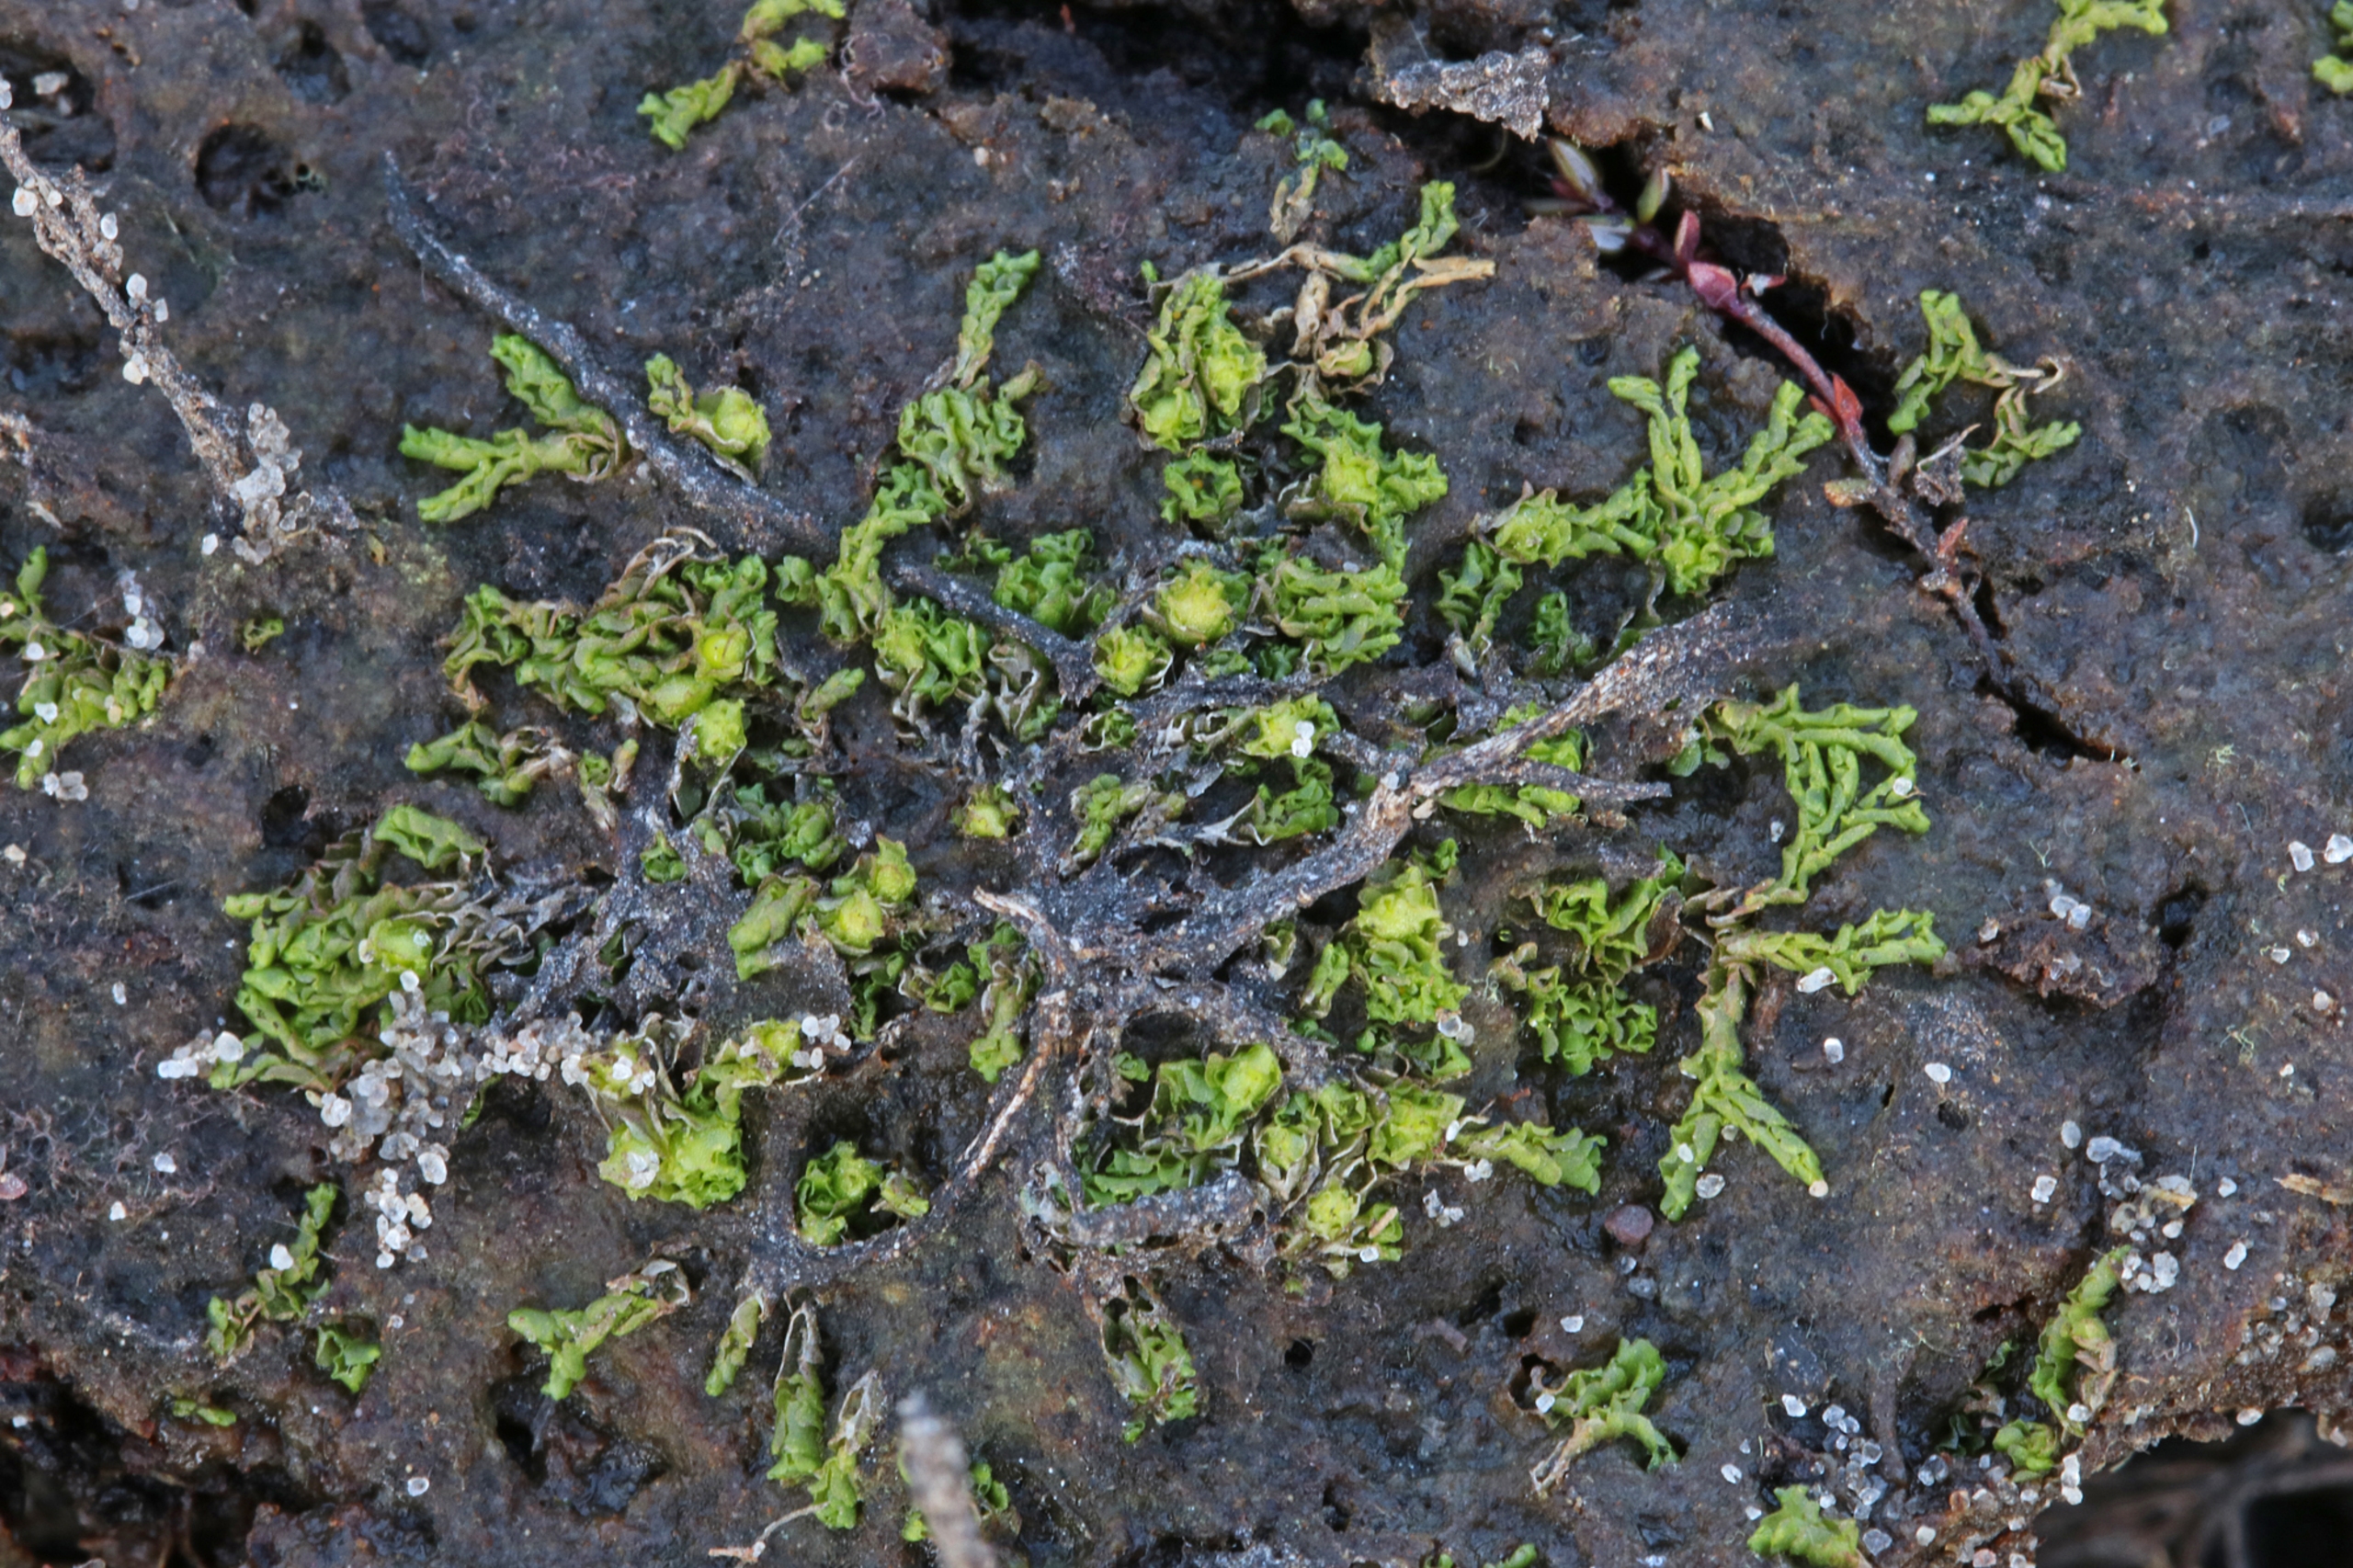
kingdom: Plantae
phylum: Marchantiophyta
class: Jungermanniopsida
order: Fossombroniales
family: Fossombroniaceae
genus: Fossombronia
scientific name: Fossombronia foveolata
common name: Netsporet klokkesvøb
